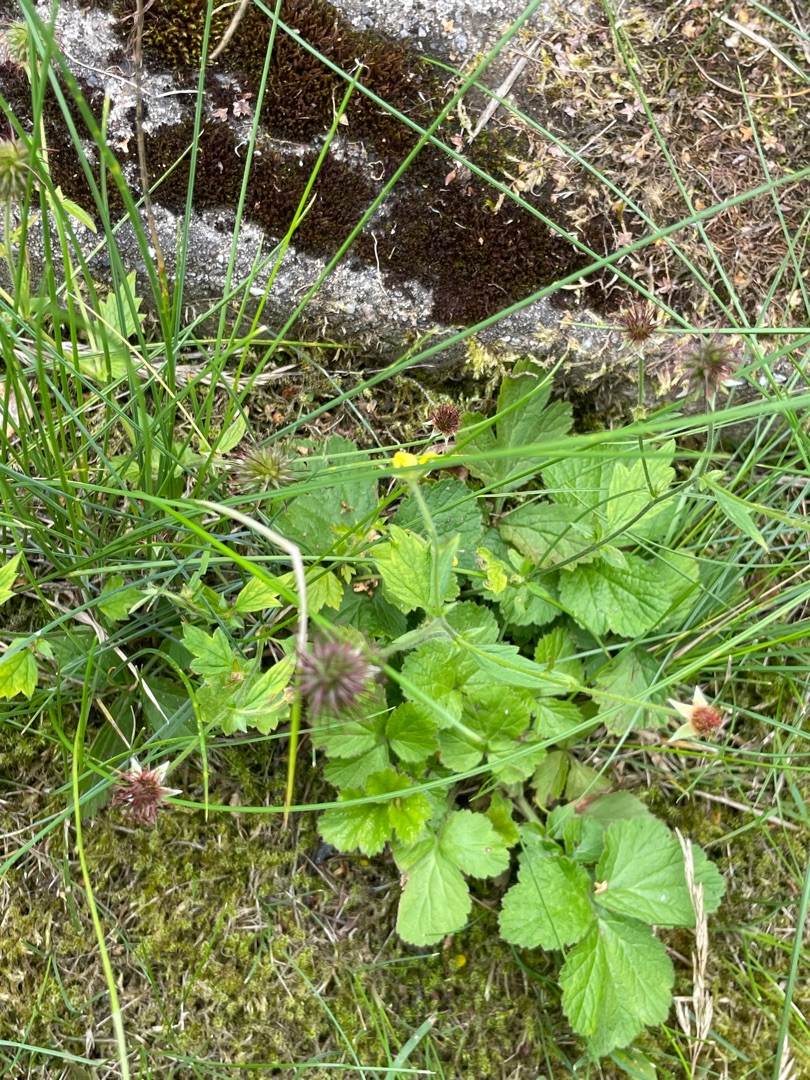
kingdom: Plantae
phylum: Tracheophyta
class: Magnoliopsida
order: Rosales
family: Rosaceae
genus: Geum
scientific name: Geum urbanum
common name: Feber-nellikerod
